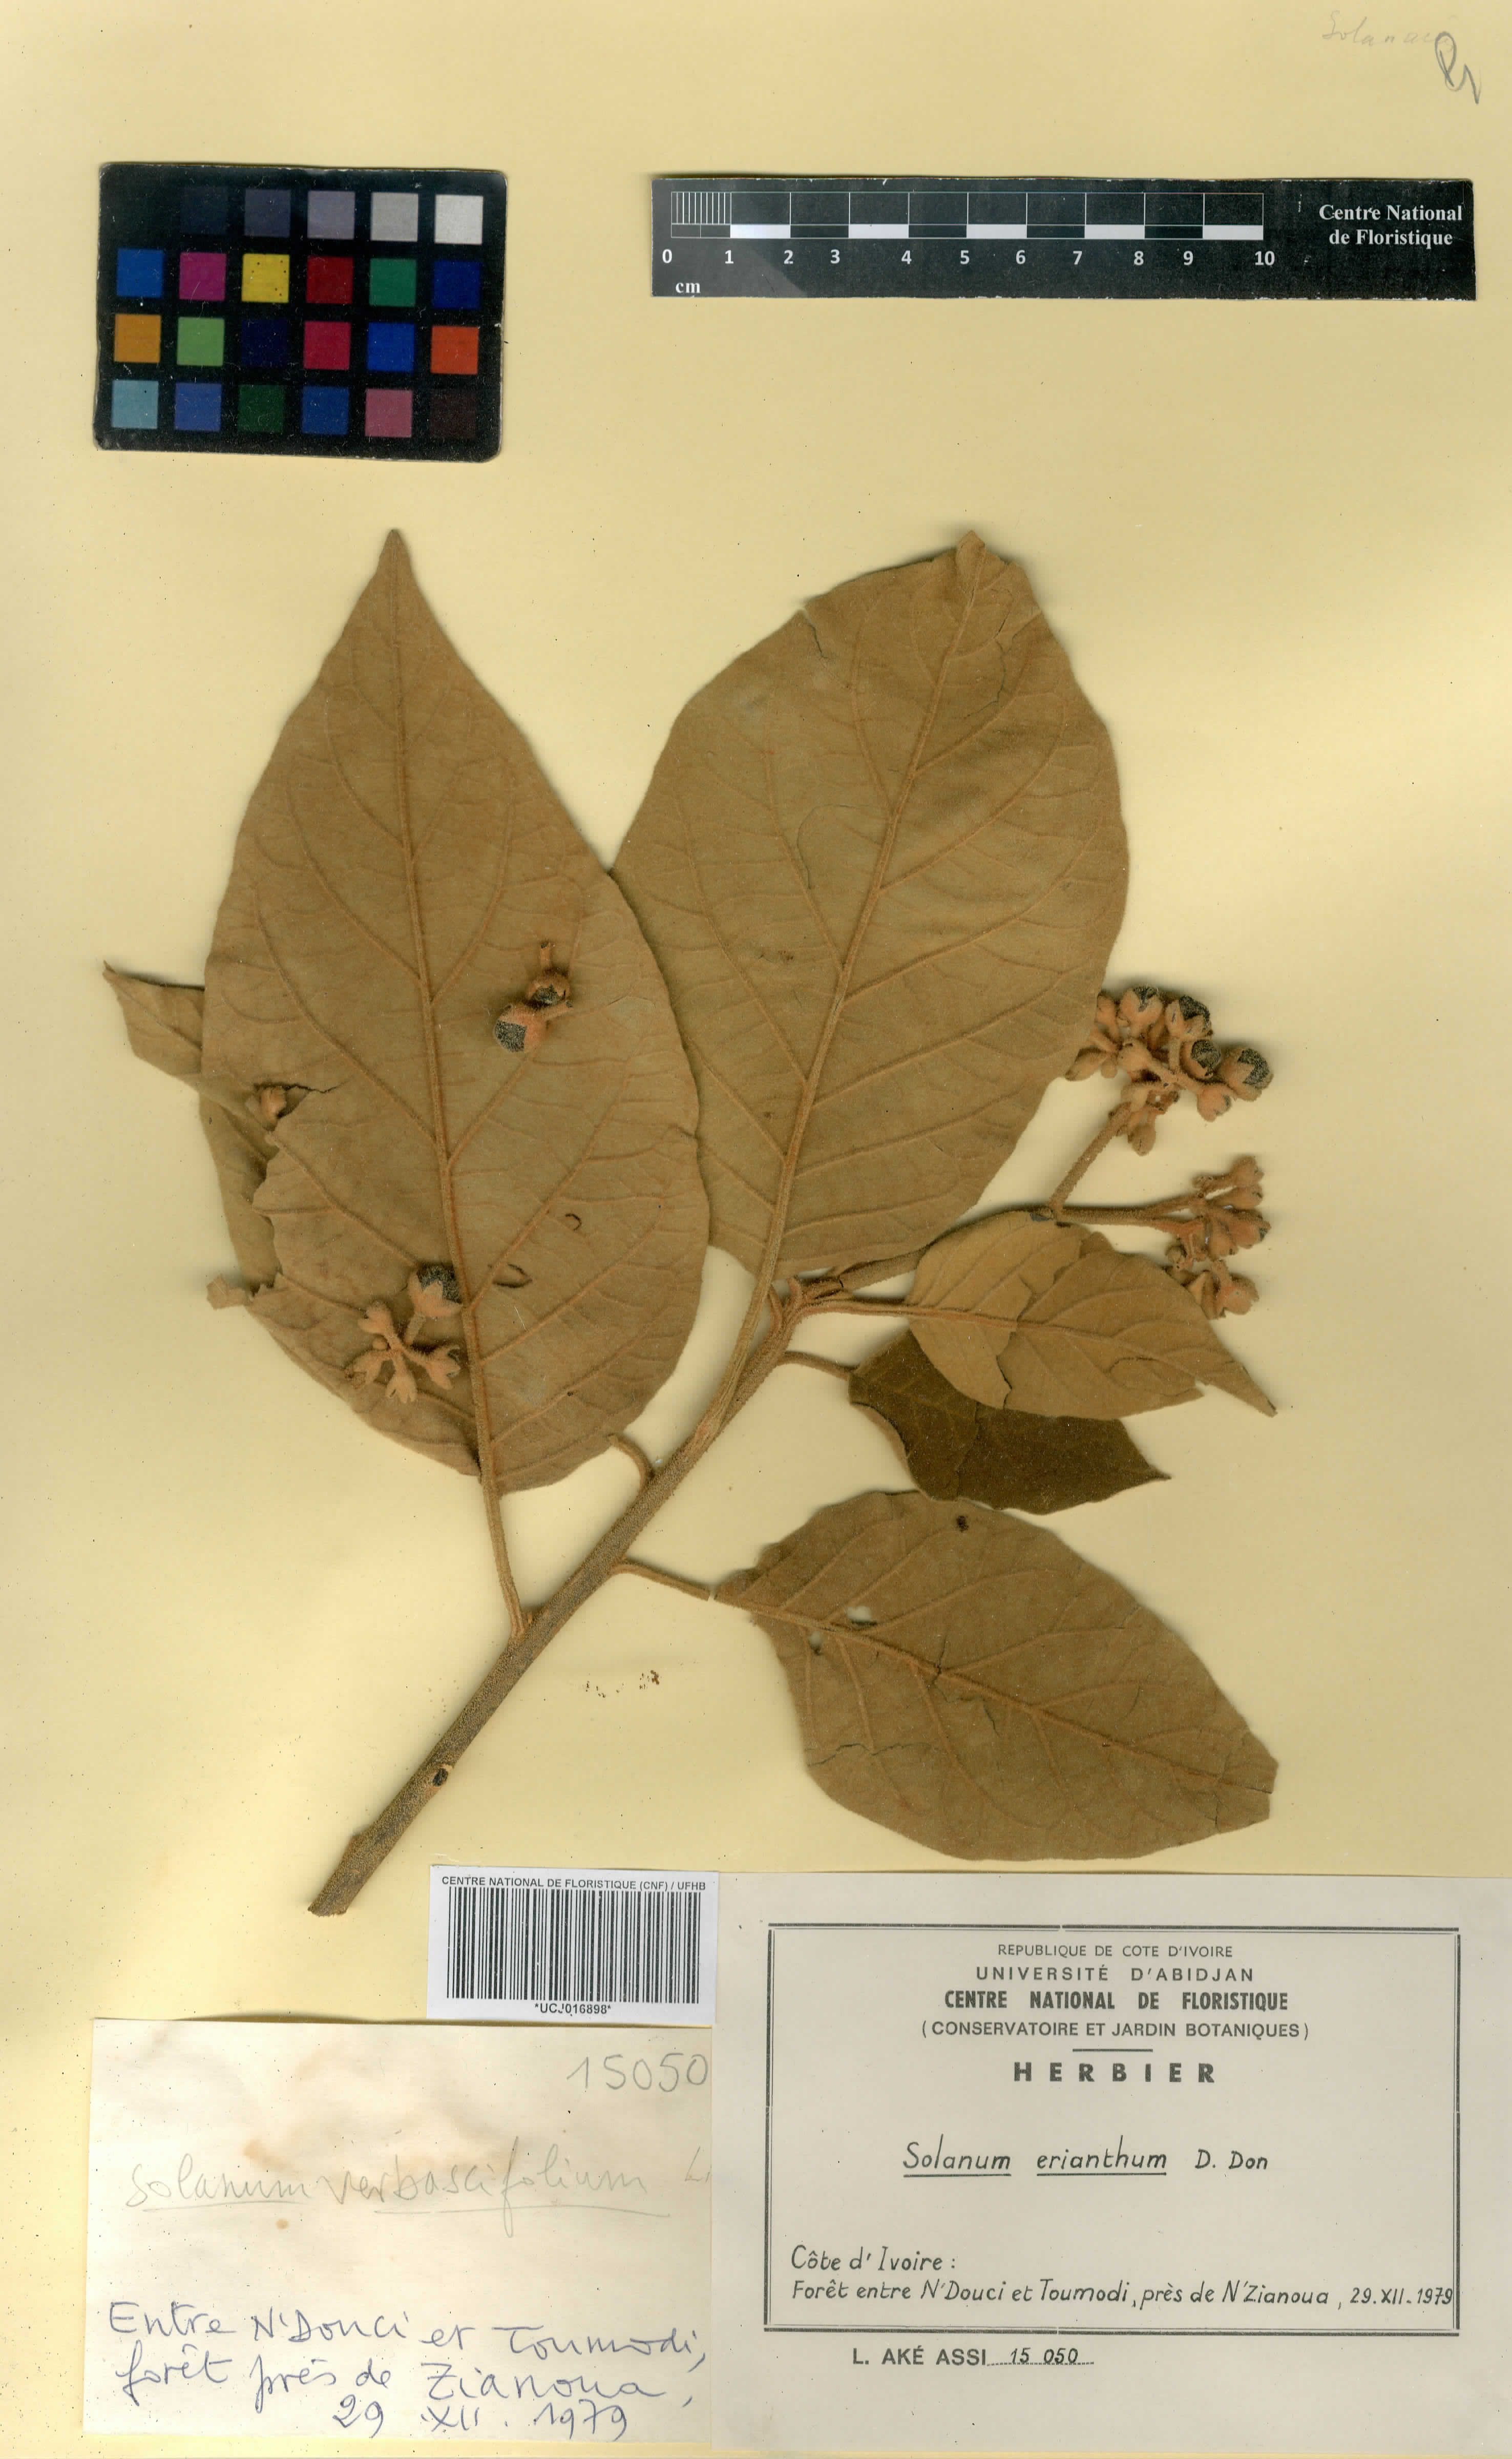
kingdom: Plantae
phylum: Tracheophyta
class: Magnoliopsida
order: Solanales
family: Solanaceae
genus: Solanum
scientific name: Solanum anguivi
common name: Forest bitterberry
